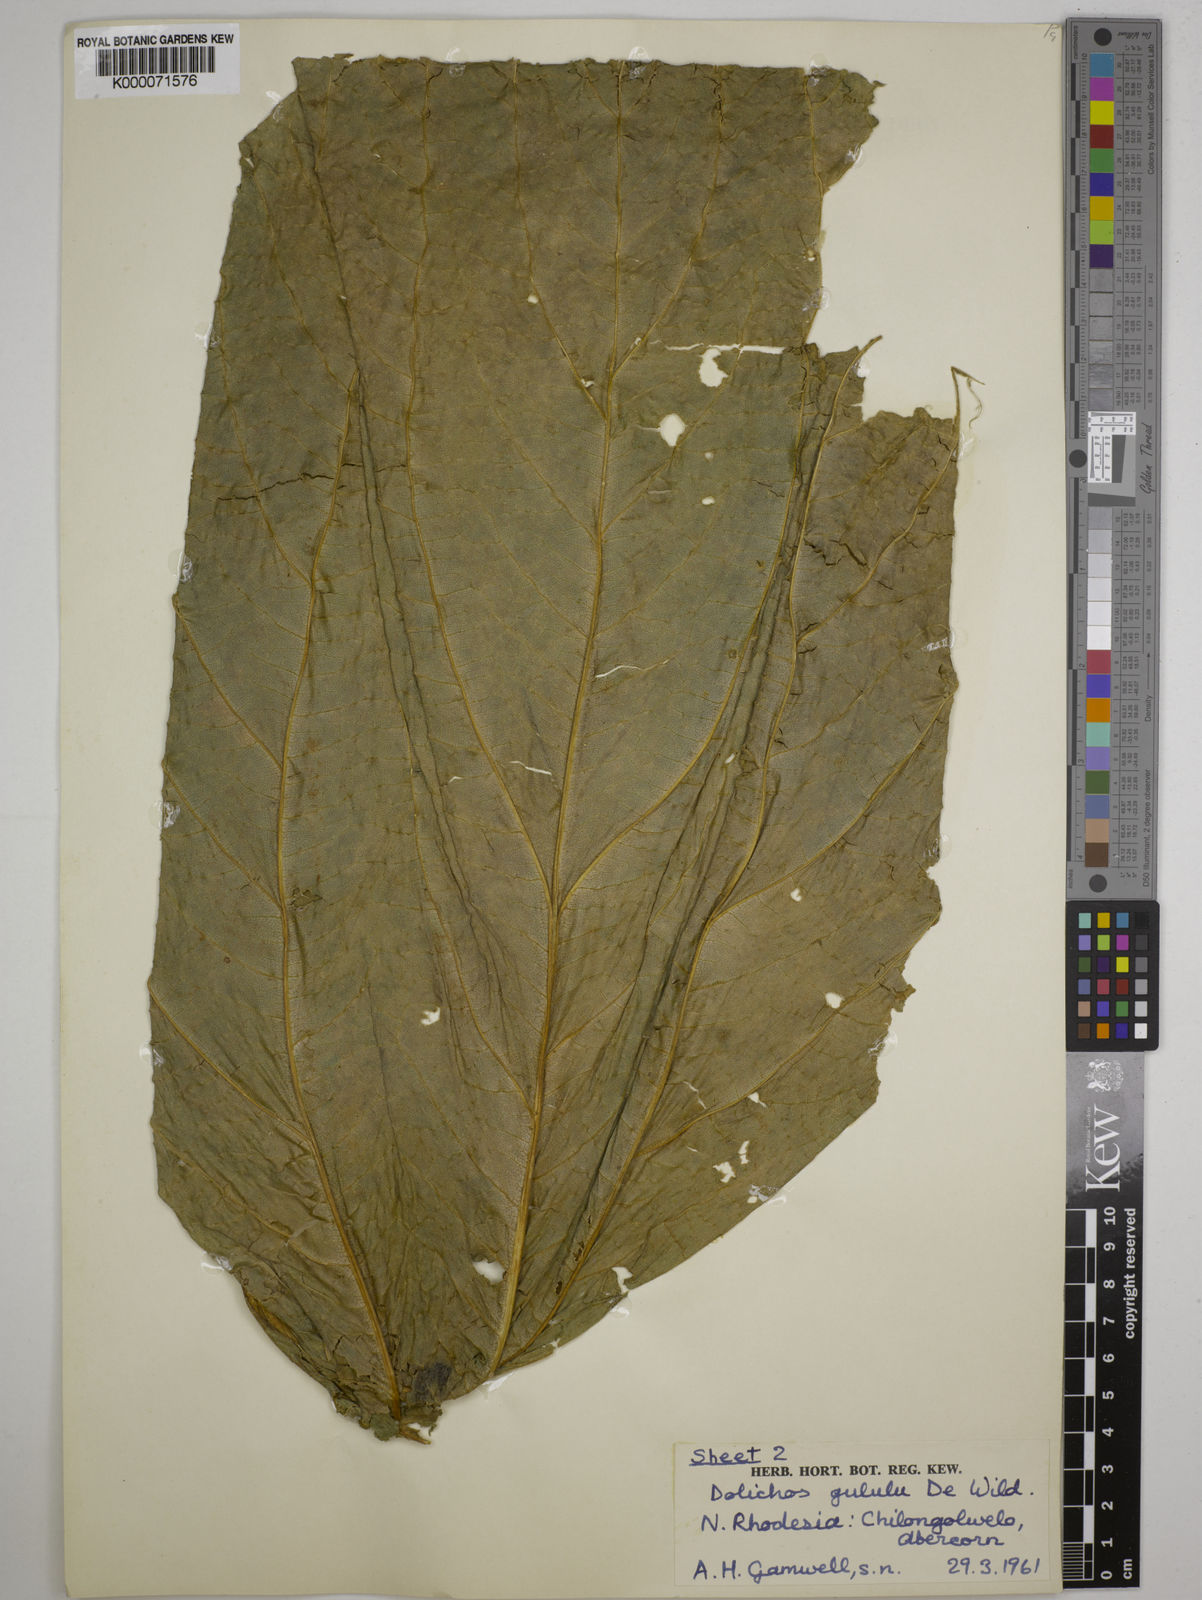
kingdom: Plantae
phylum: Tracheophyta
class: Magnoliopsida
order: Fabales
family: Fabaceae
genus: Dolichos
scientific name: Dolichos gululu
